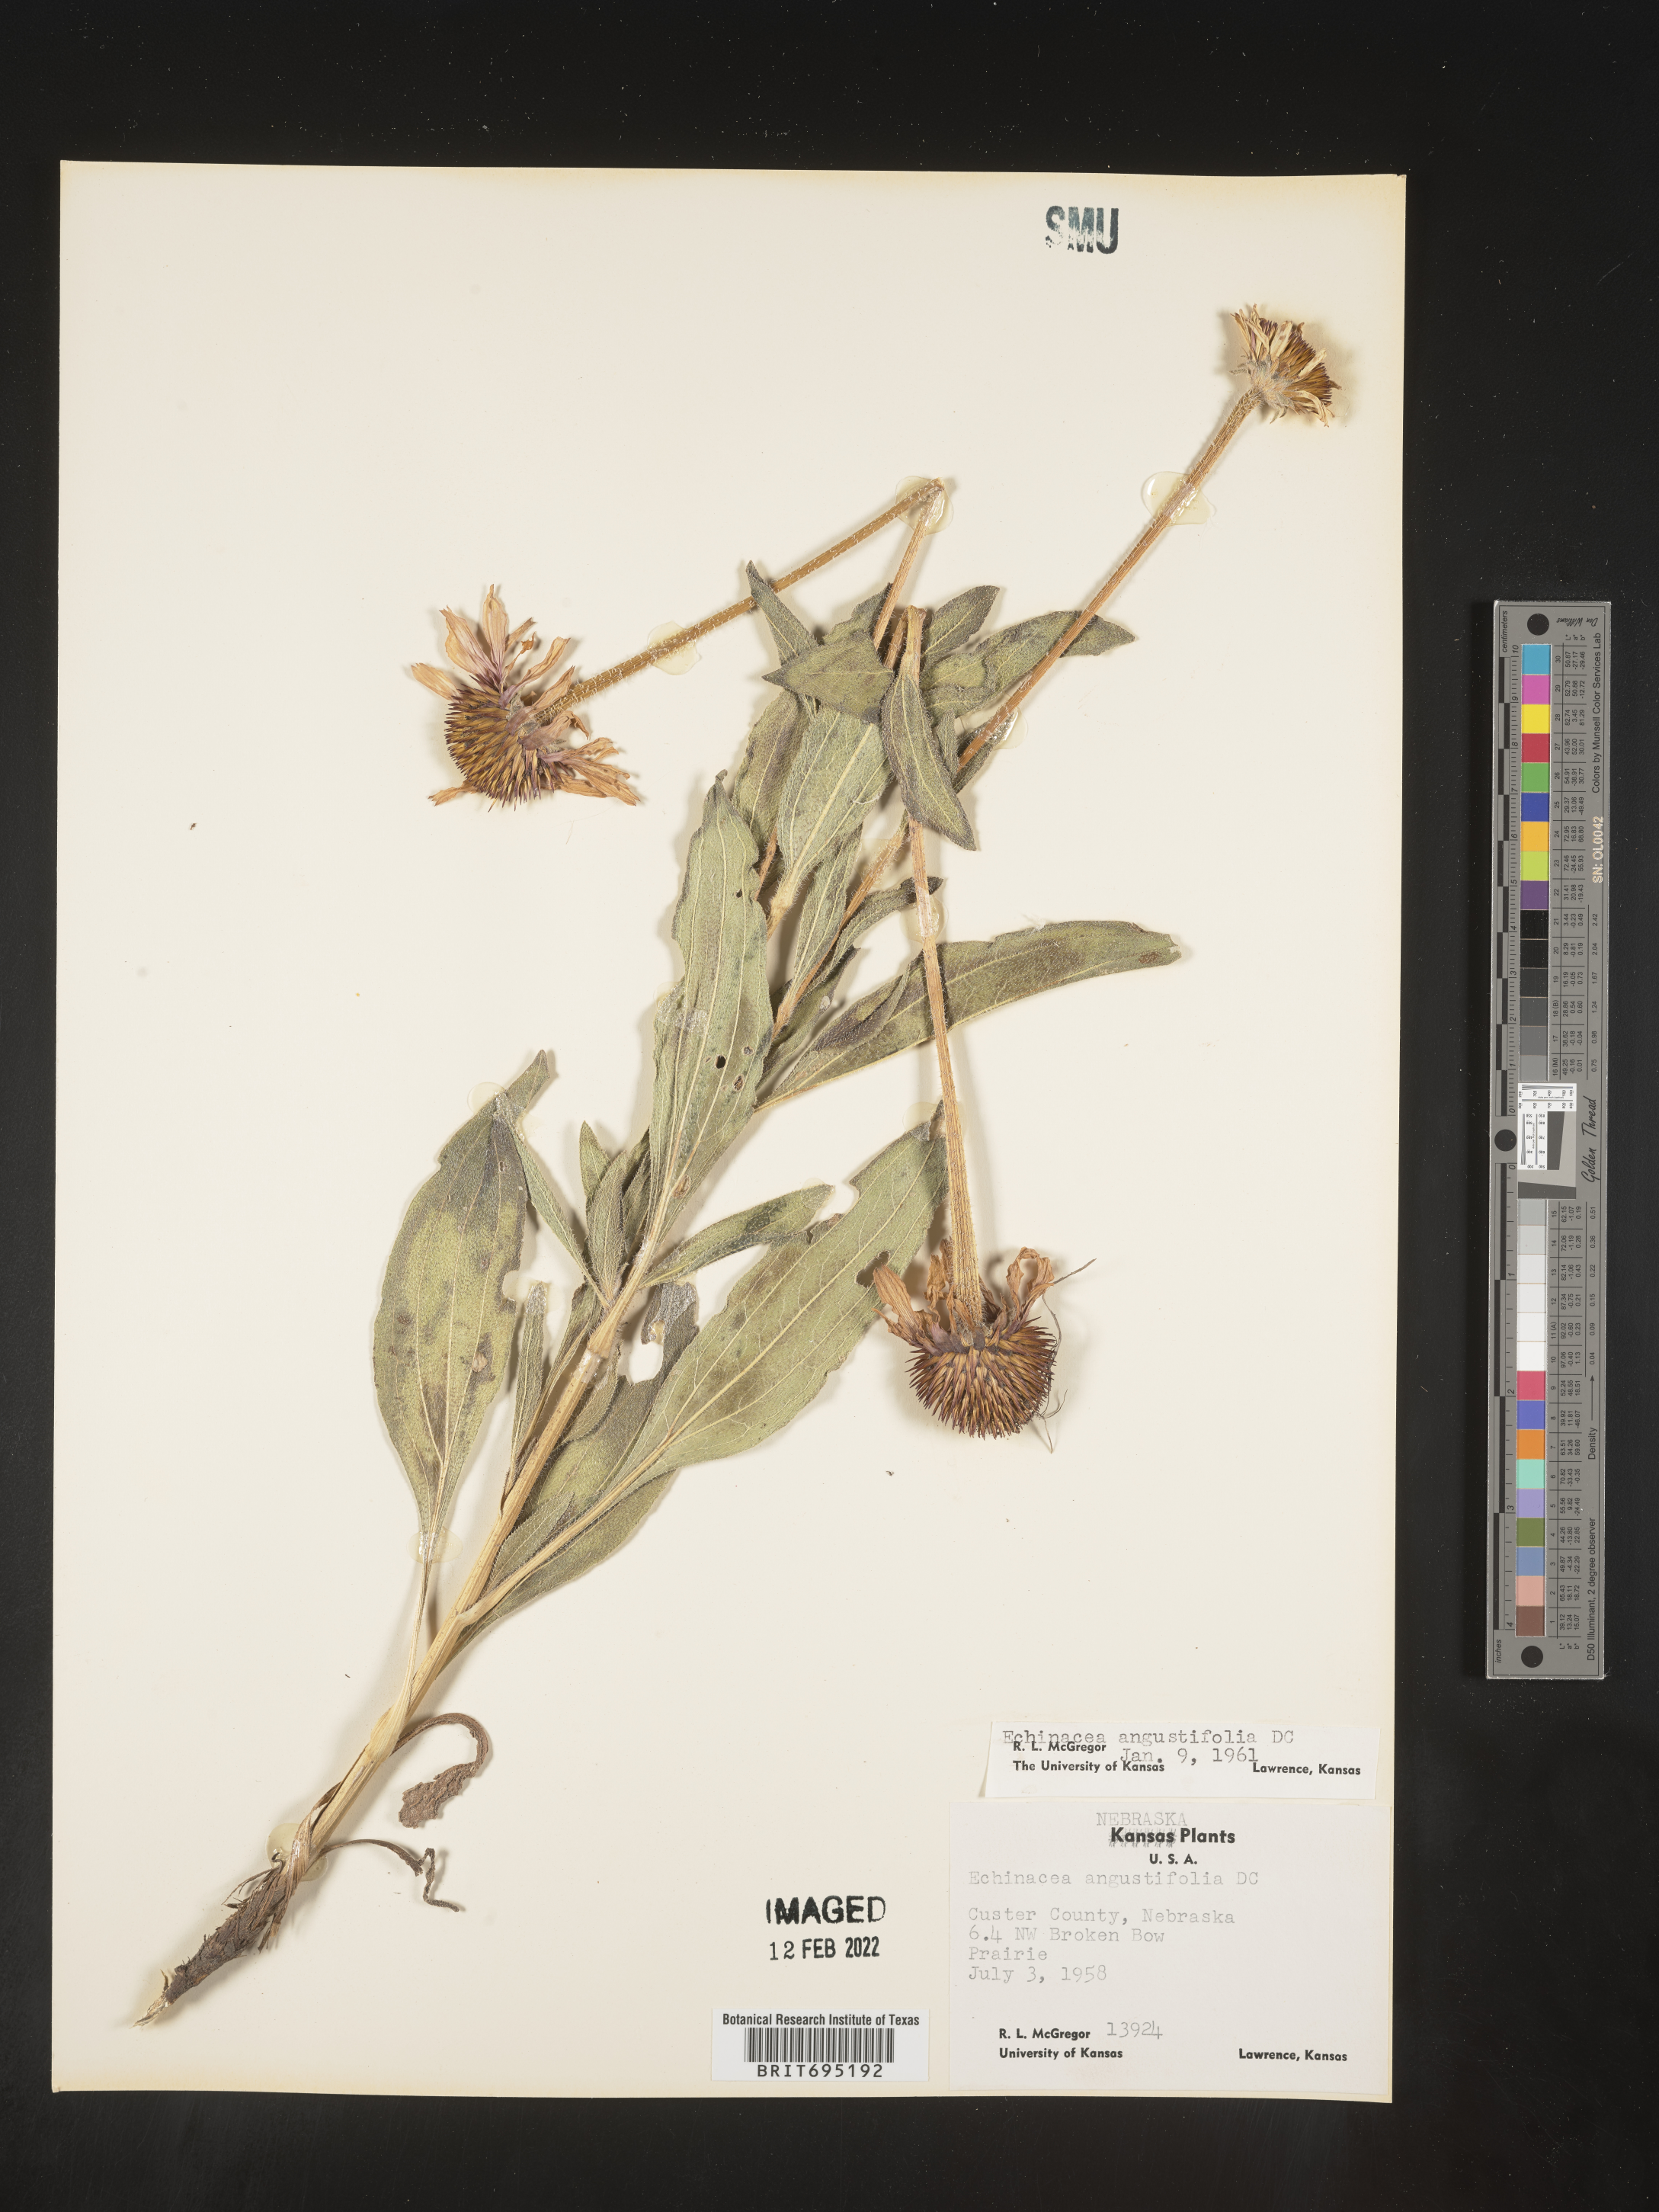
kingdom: Plantae
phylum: Tracheophyta
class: Magnoliopsida
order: Asterales
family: Asteraceae
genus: Echinacea
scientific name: Echinacea angustifolia
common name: Black-sampson echinacea
